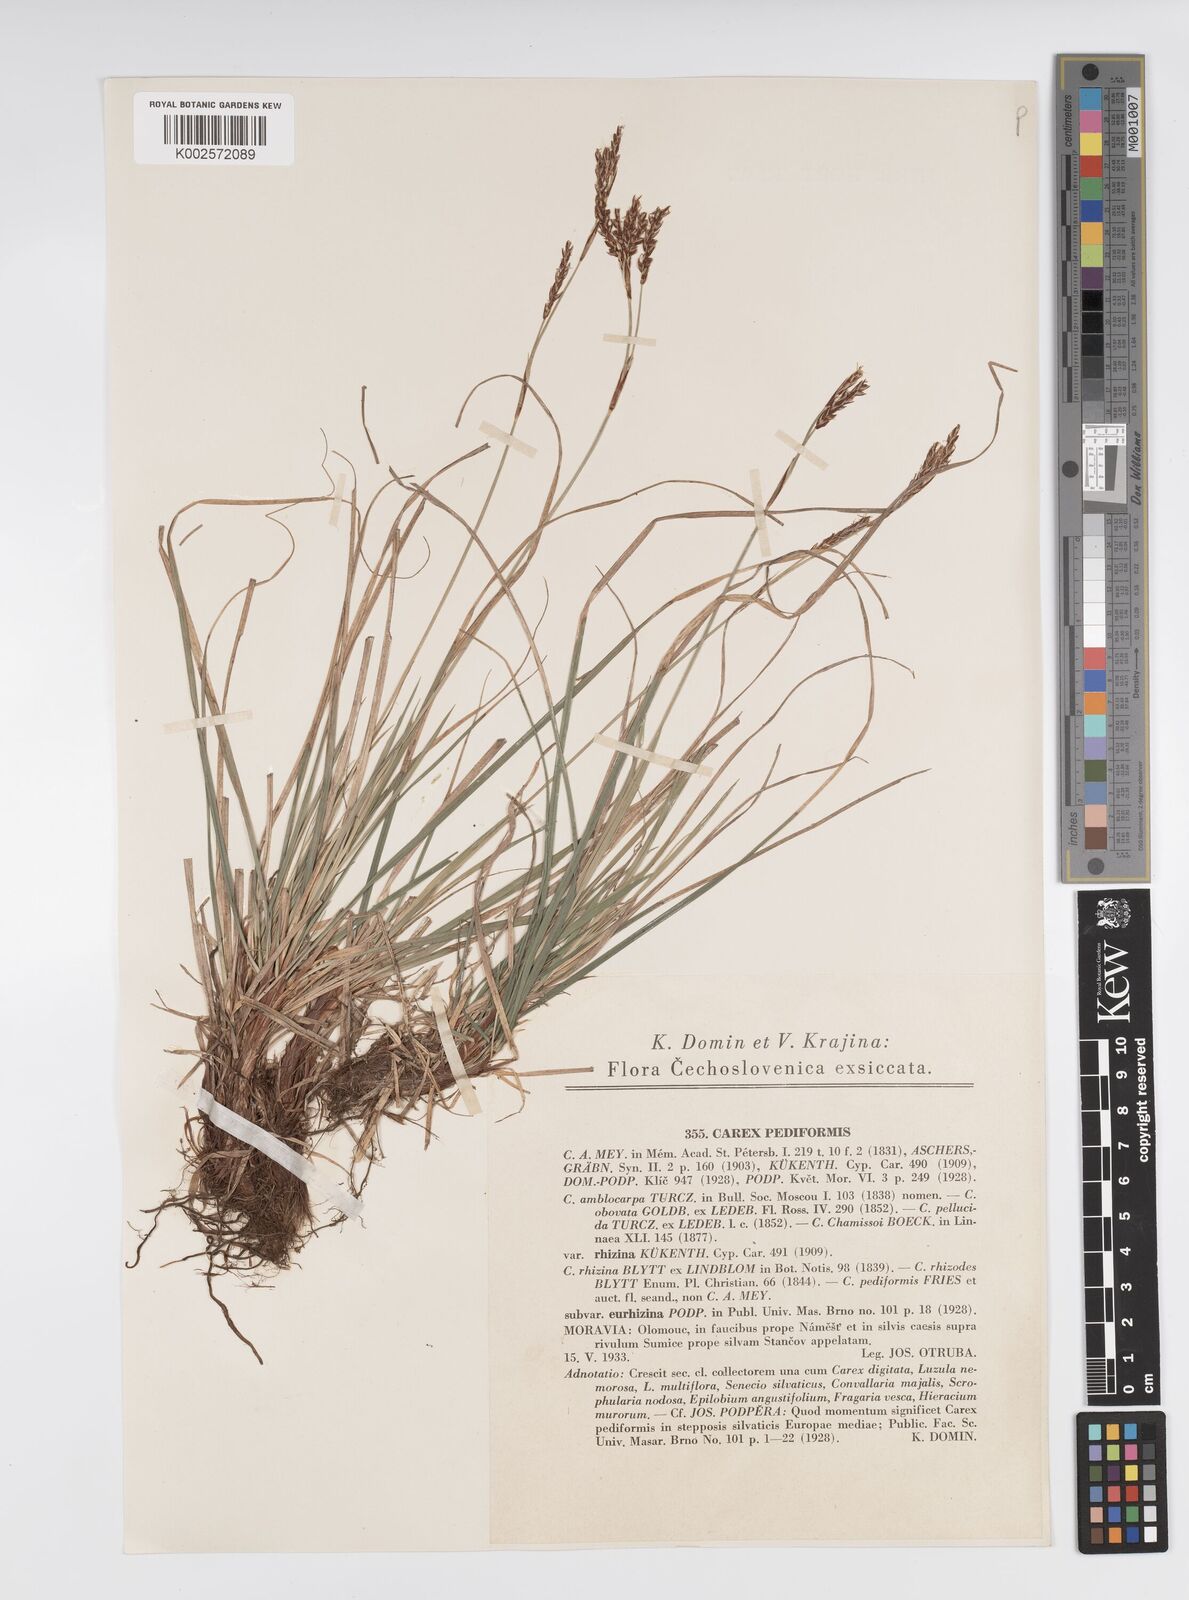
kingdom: Plantae
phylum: Tracheophyta
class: Liliopsida
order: Poales
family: Cyperaceae
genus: Carex
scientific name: Carex pediformis
